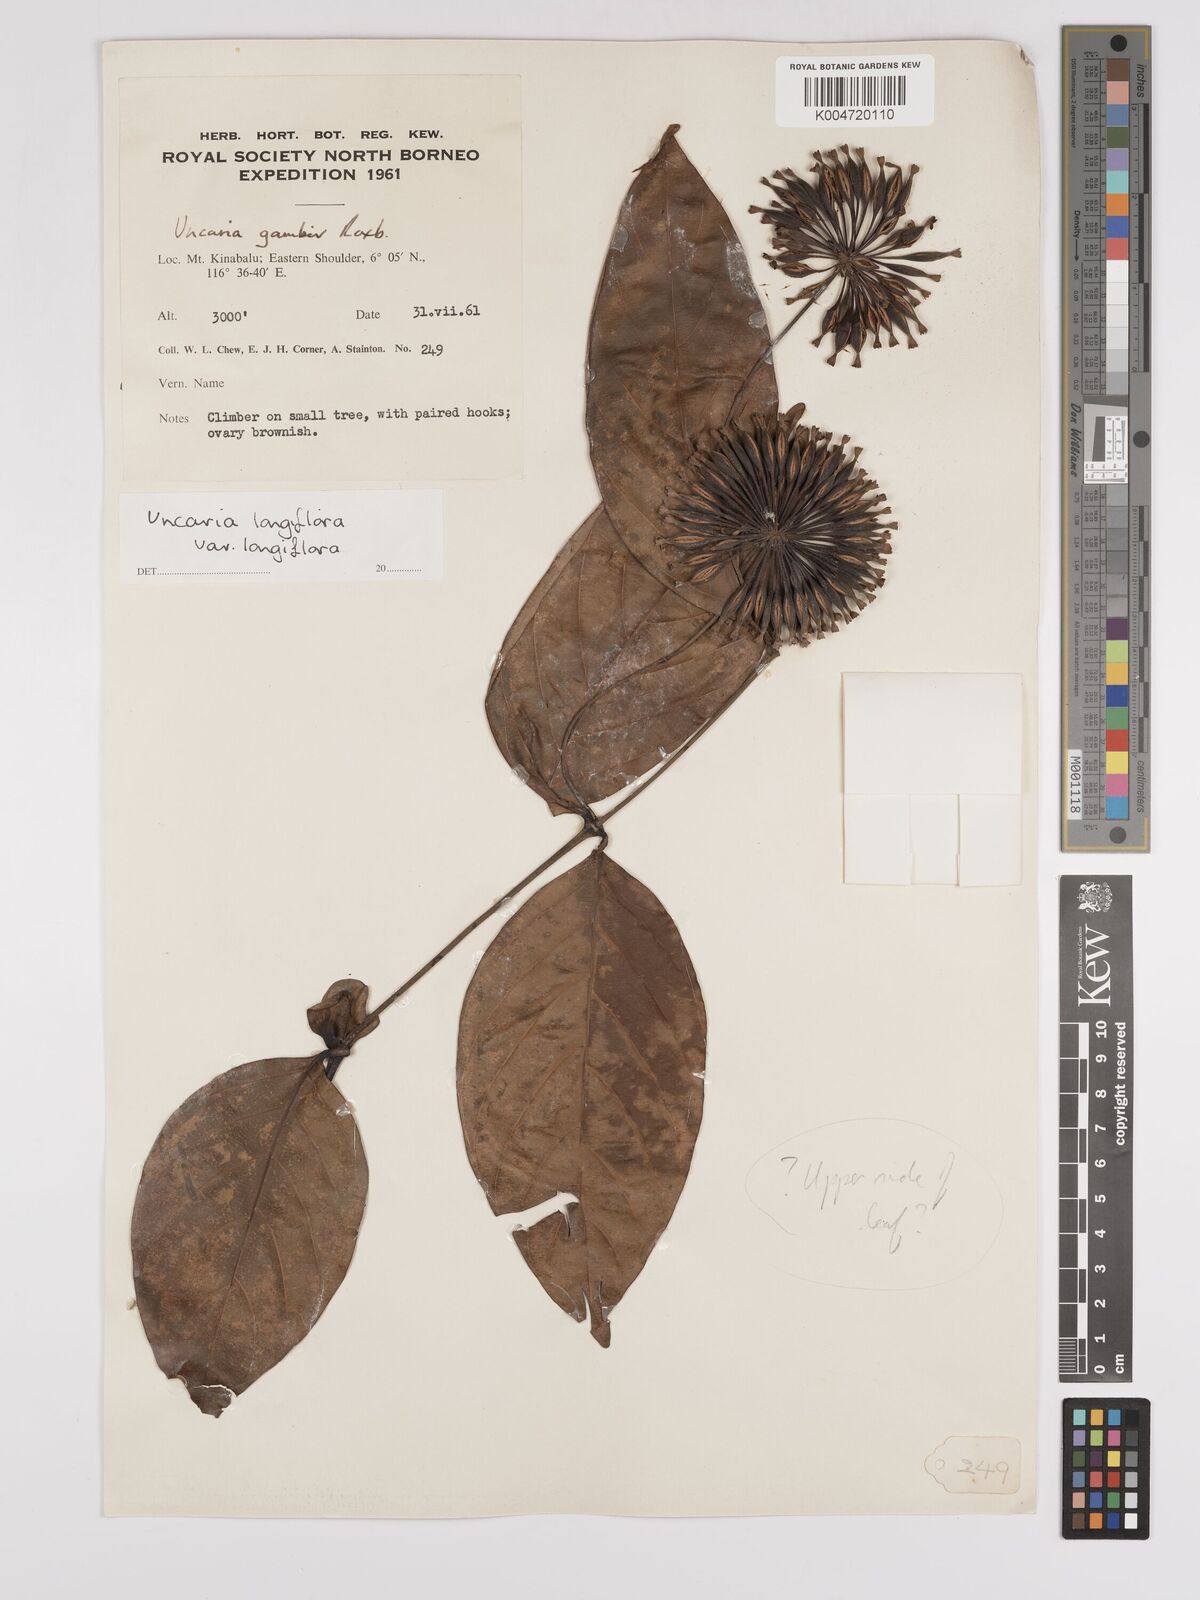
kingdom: Plantae
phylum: Tracheophyta
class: Magnoliopsida
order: Gentianales
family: Rubiaceae
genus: Uncaria
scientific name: Uncaria
